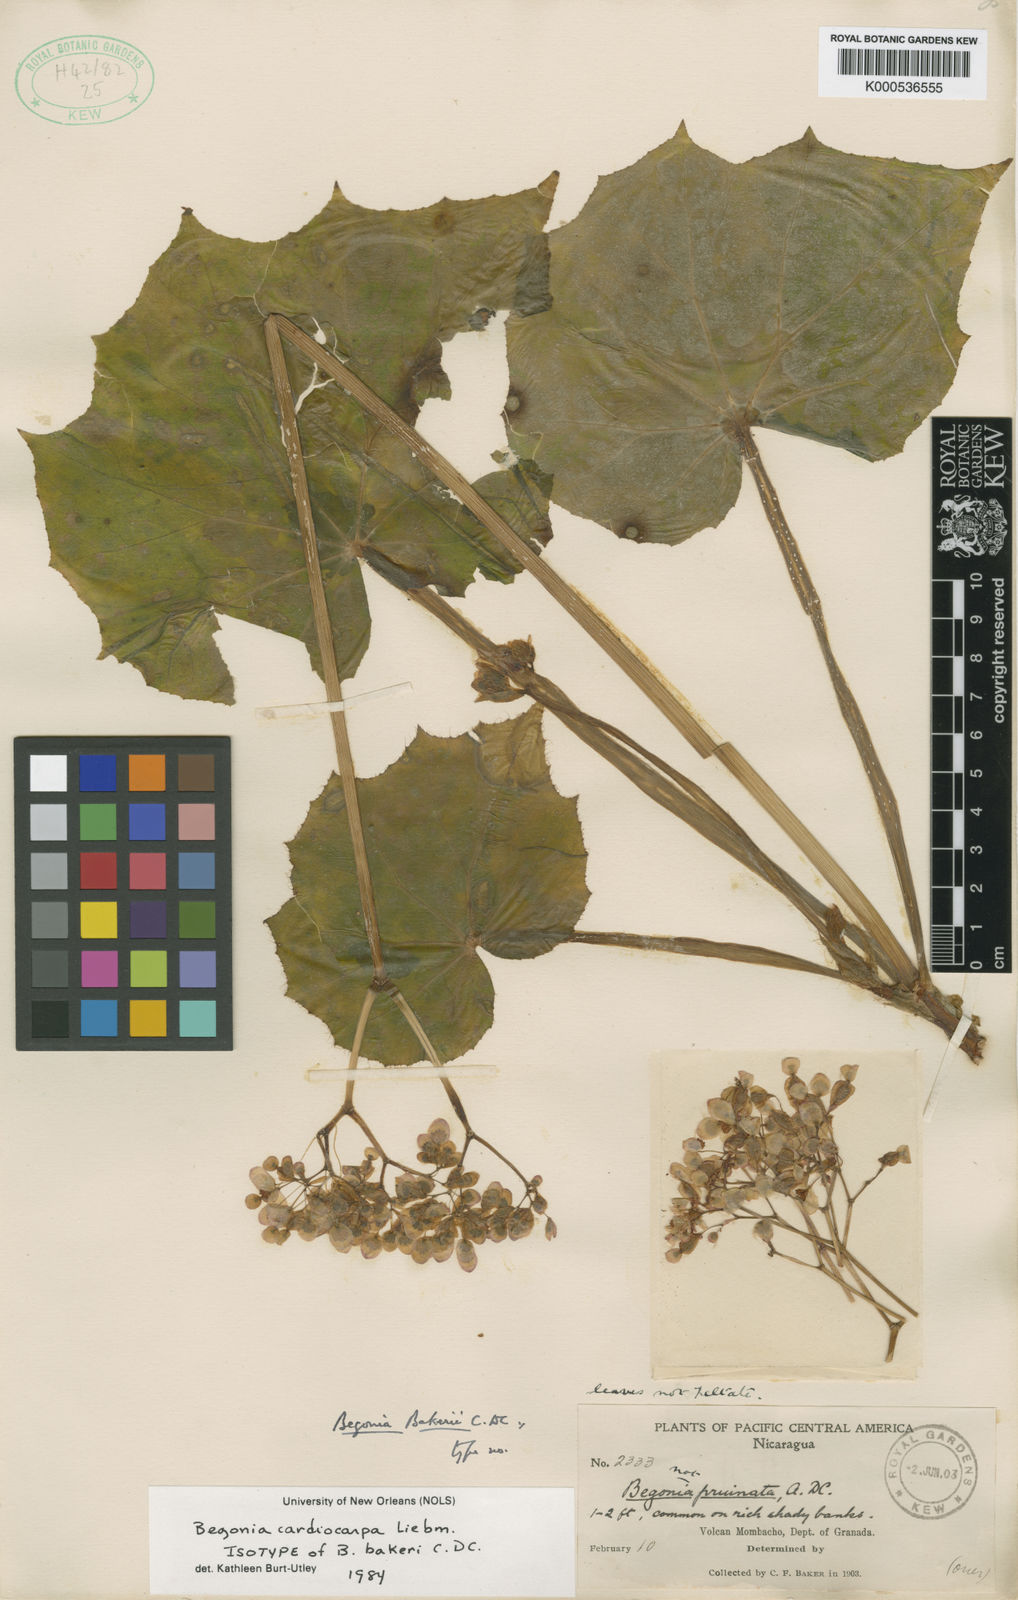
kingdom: Plantae
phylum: Tracheophyta
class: Magnoliopsida
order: Cucurbitales
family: Begoniaceae
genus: Begonia
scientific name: Begonia cardiocarpa
